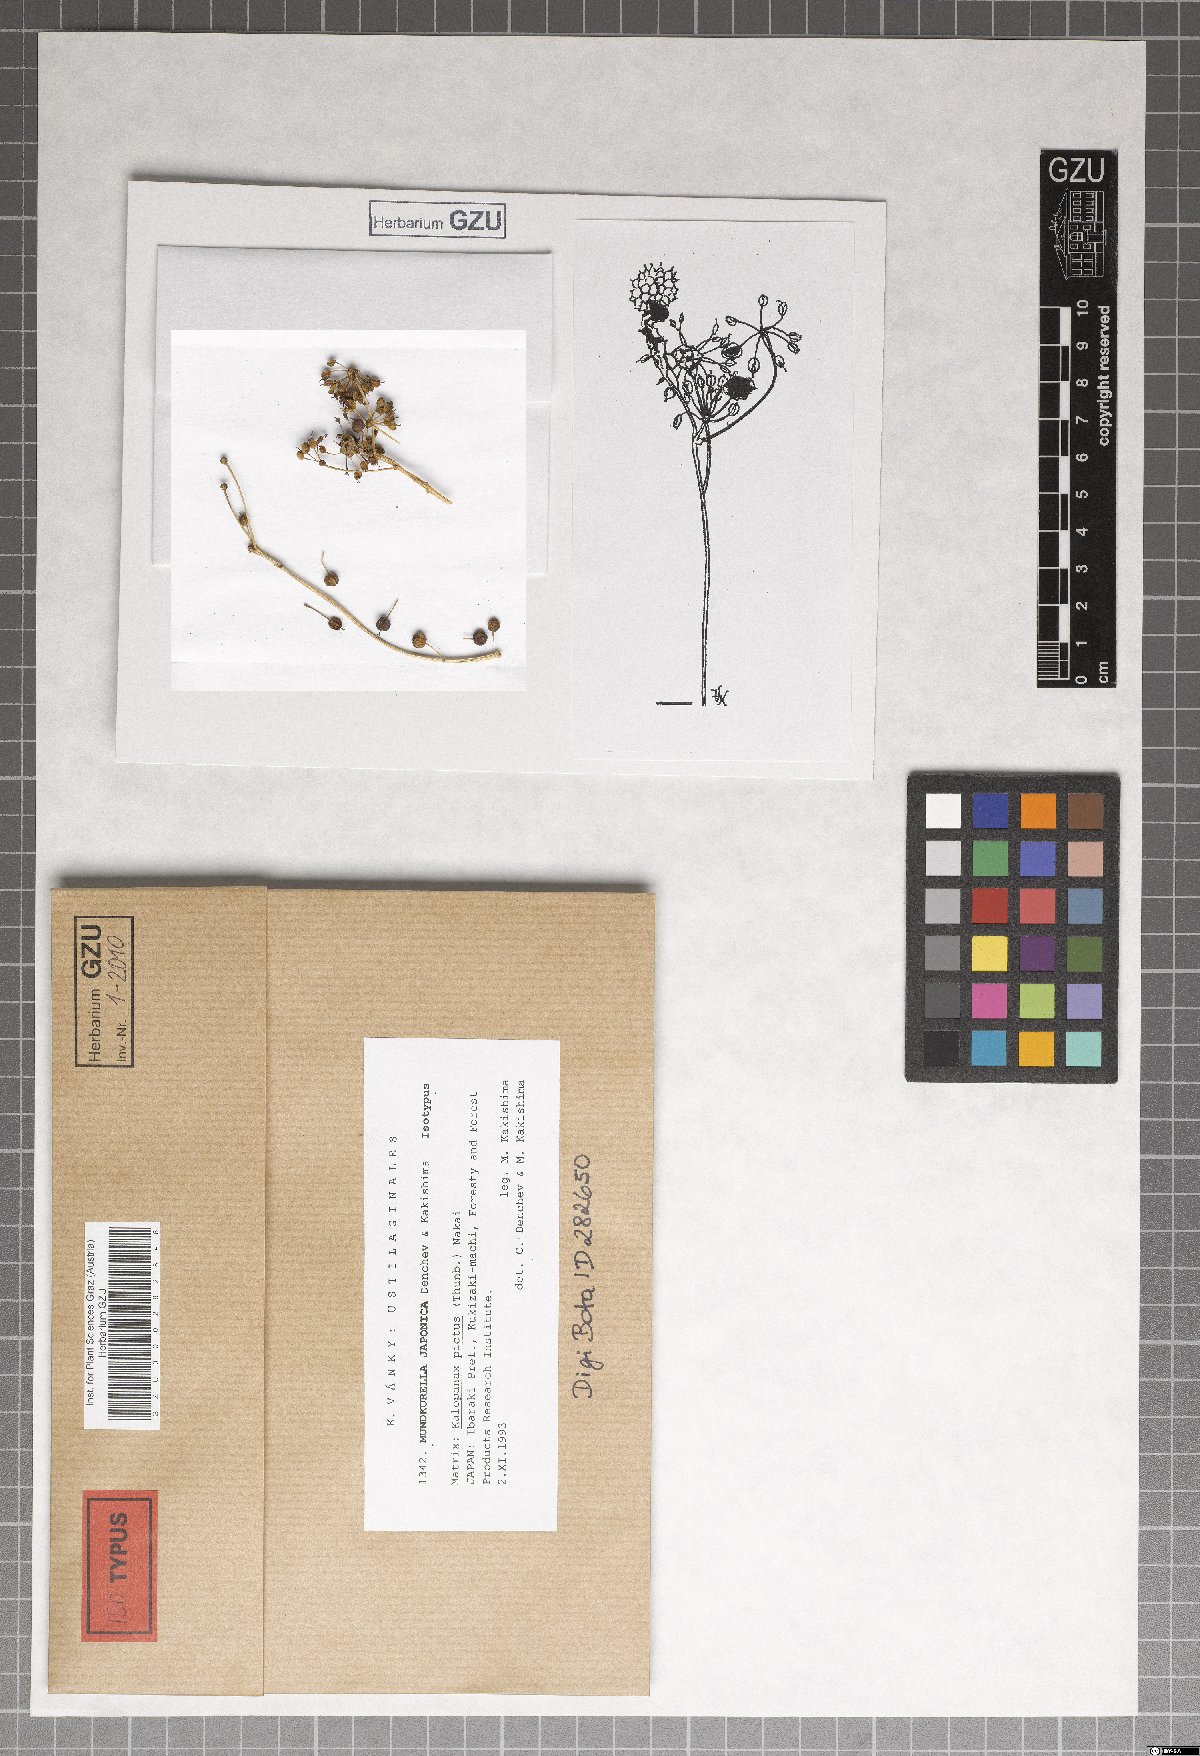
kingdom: Fungi
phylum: Basidiomycota
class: Ustilaginomycetes
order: Urocystidales
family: Urocystidaceae
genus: Mundkurella
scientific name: Mundkurella japonica
